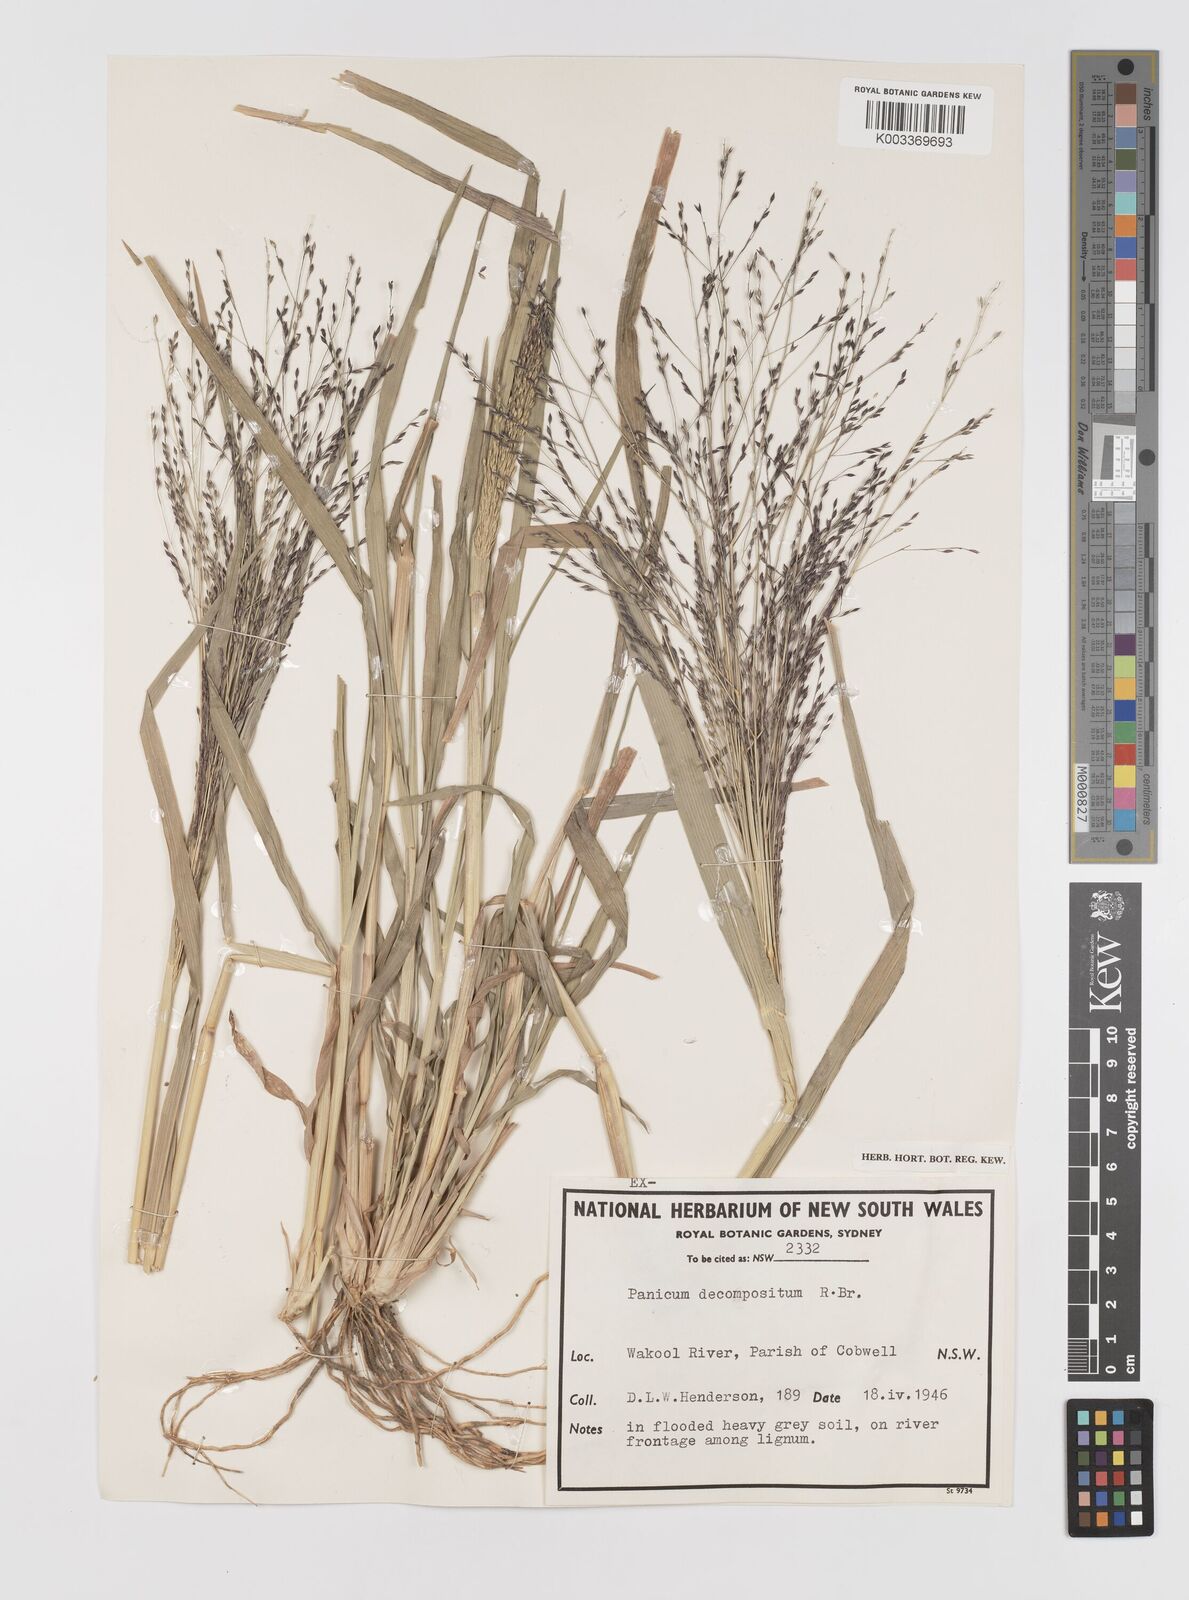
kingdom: Plantae
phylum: Tracheophyta
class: Liliopsida
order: Poales
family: Poaceae
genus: Panicum
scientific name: Panicum decompositum
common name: Australian millet
